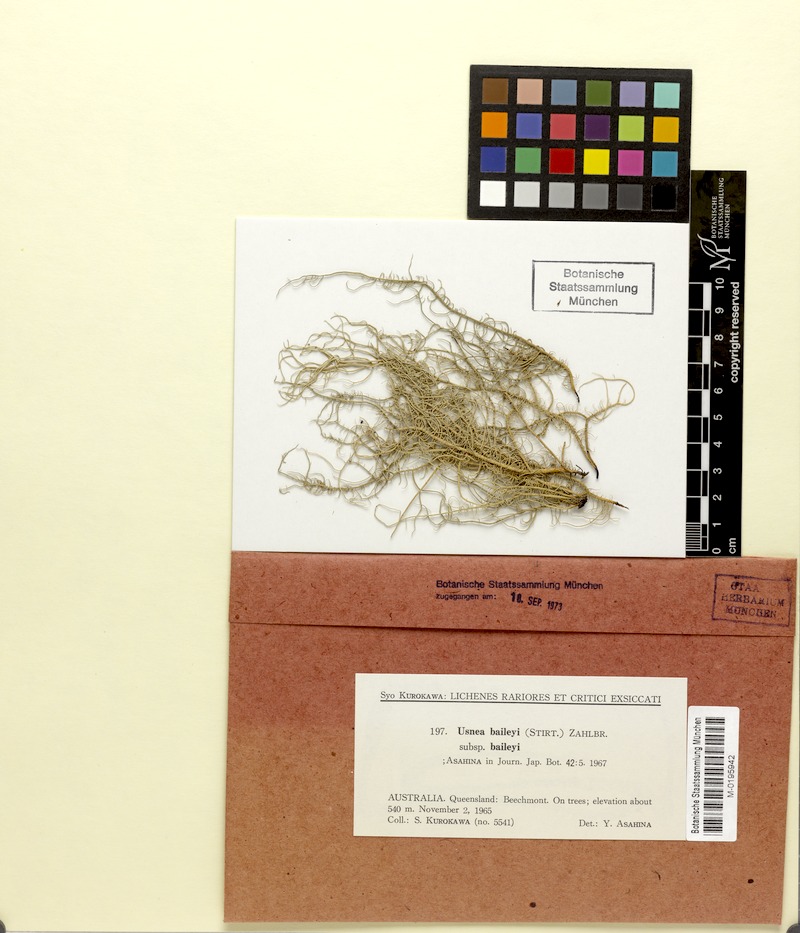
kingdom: Fungi
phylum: Ascomycota
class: Lecanoromycetes
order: Lecanorales
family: Parmeliaceae
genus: Eumitria
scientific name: Eumitria baileyi
